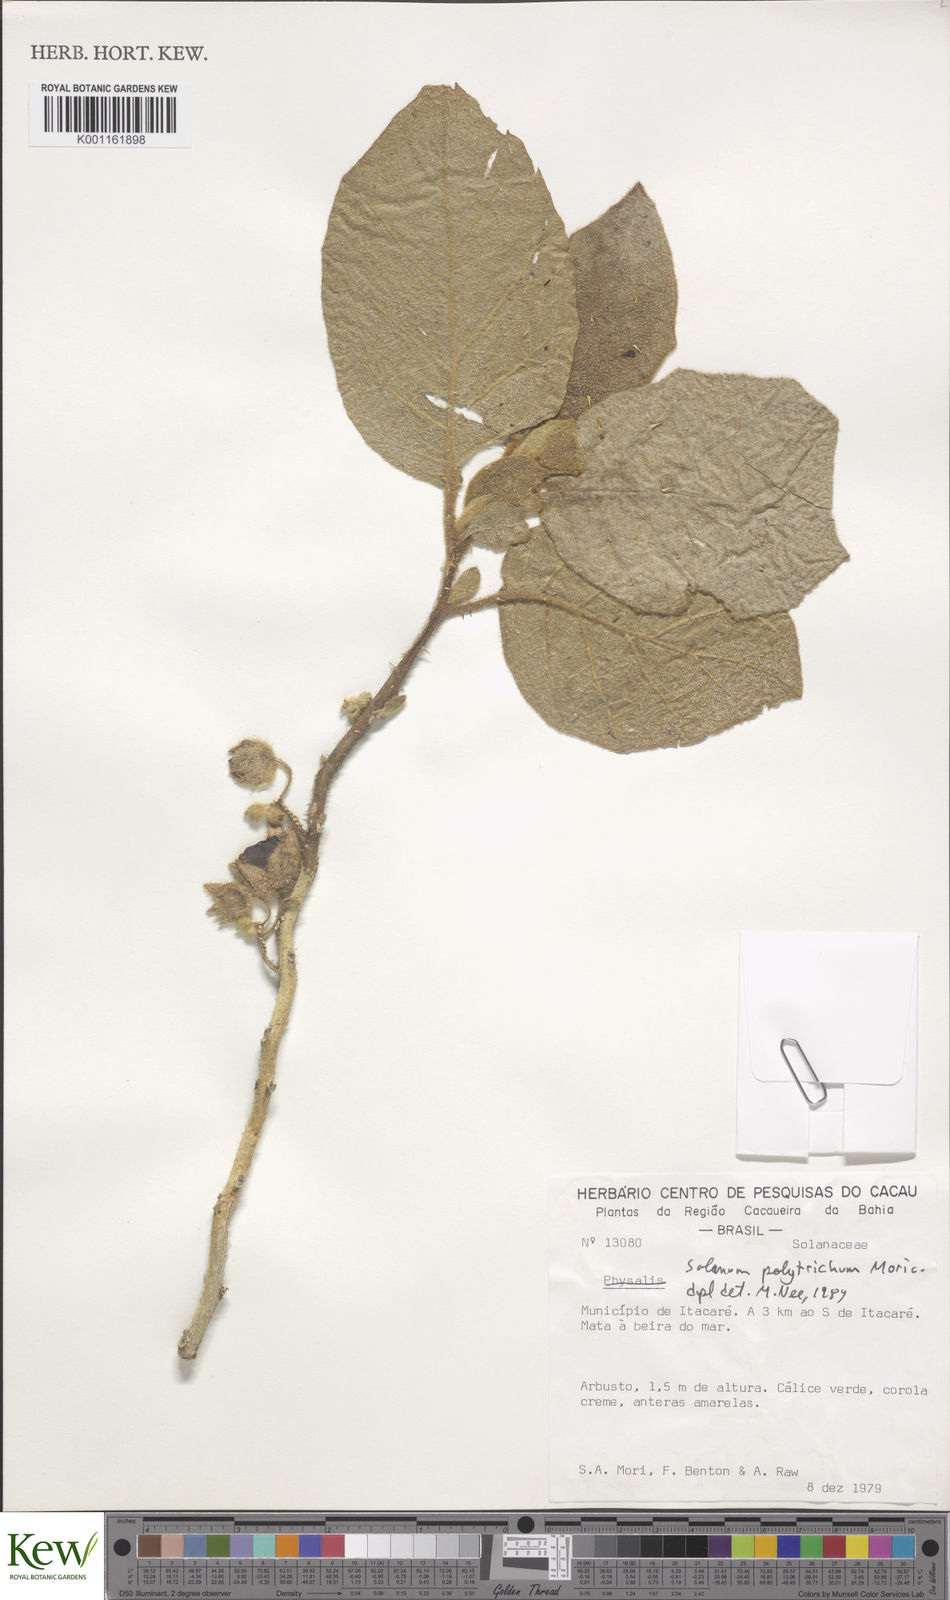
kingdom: Plantae
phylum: Tracheophyta
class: Magnoliopsida
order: Solanales
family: Solanaceae
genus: Solanum
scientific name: Solanum polytrichum
